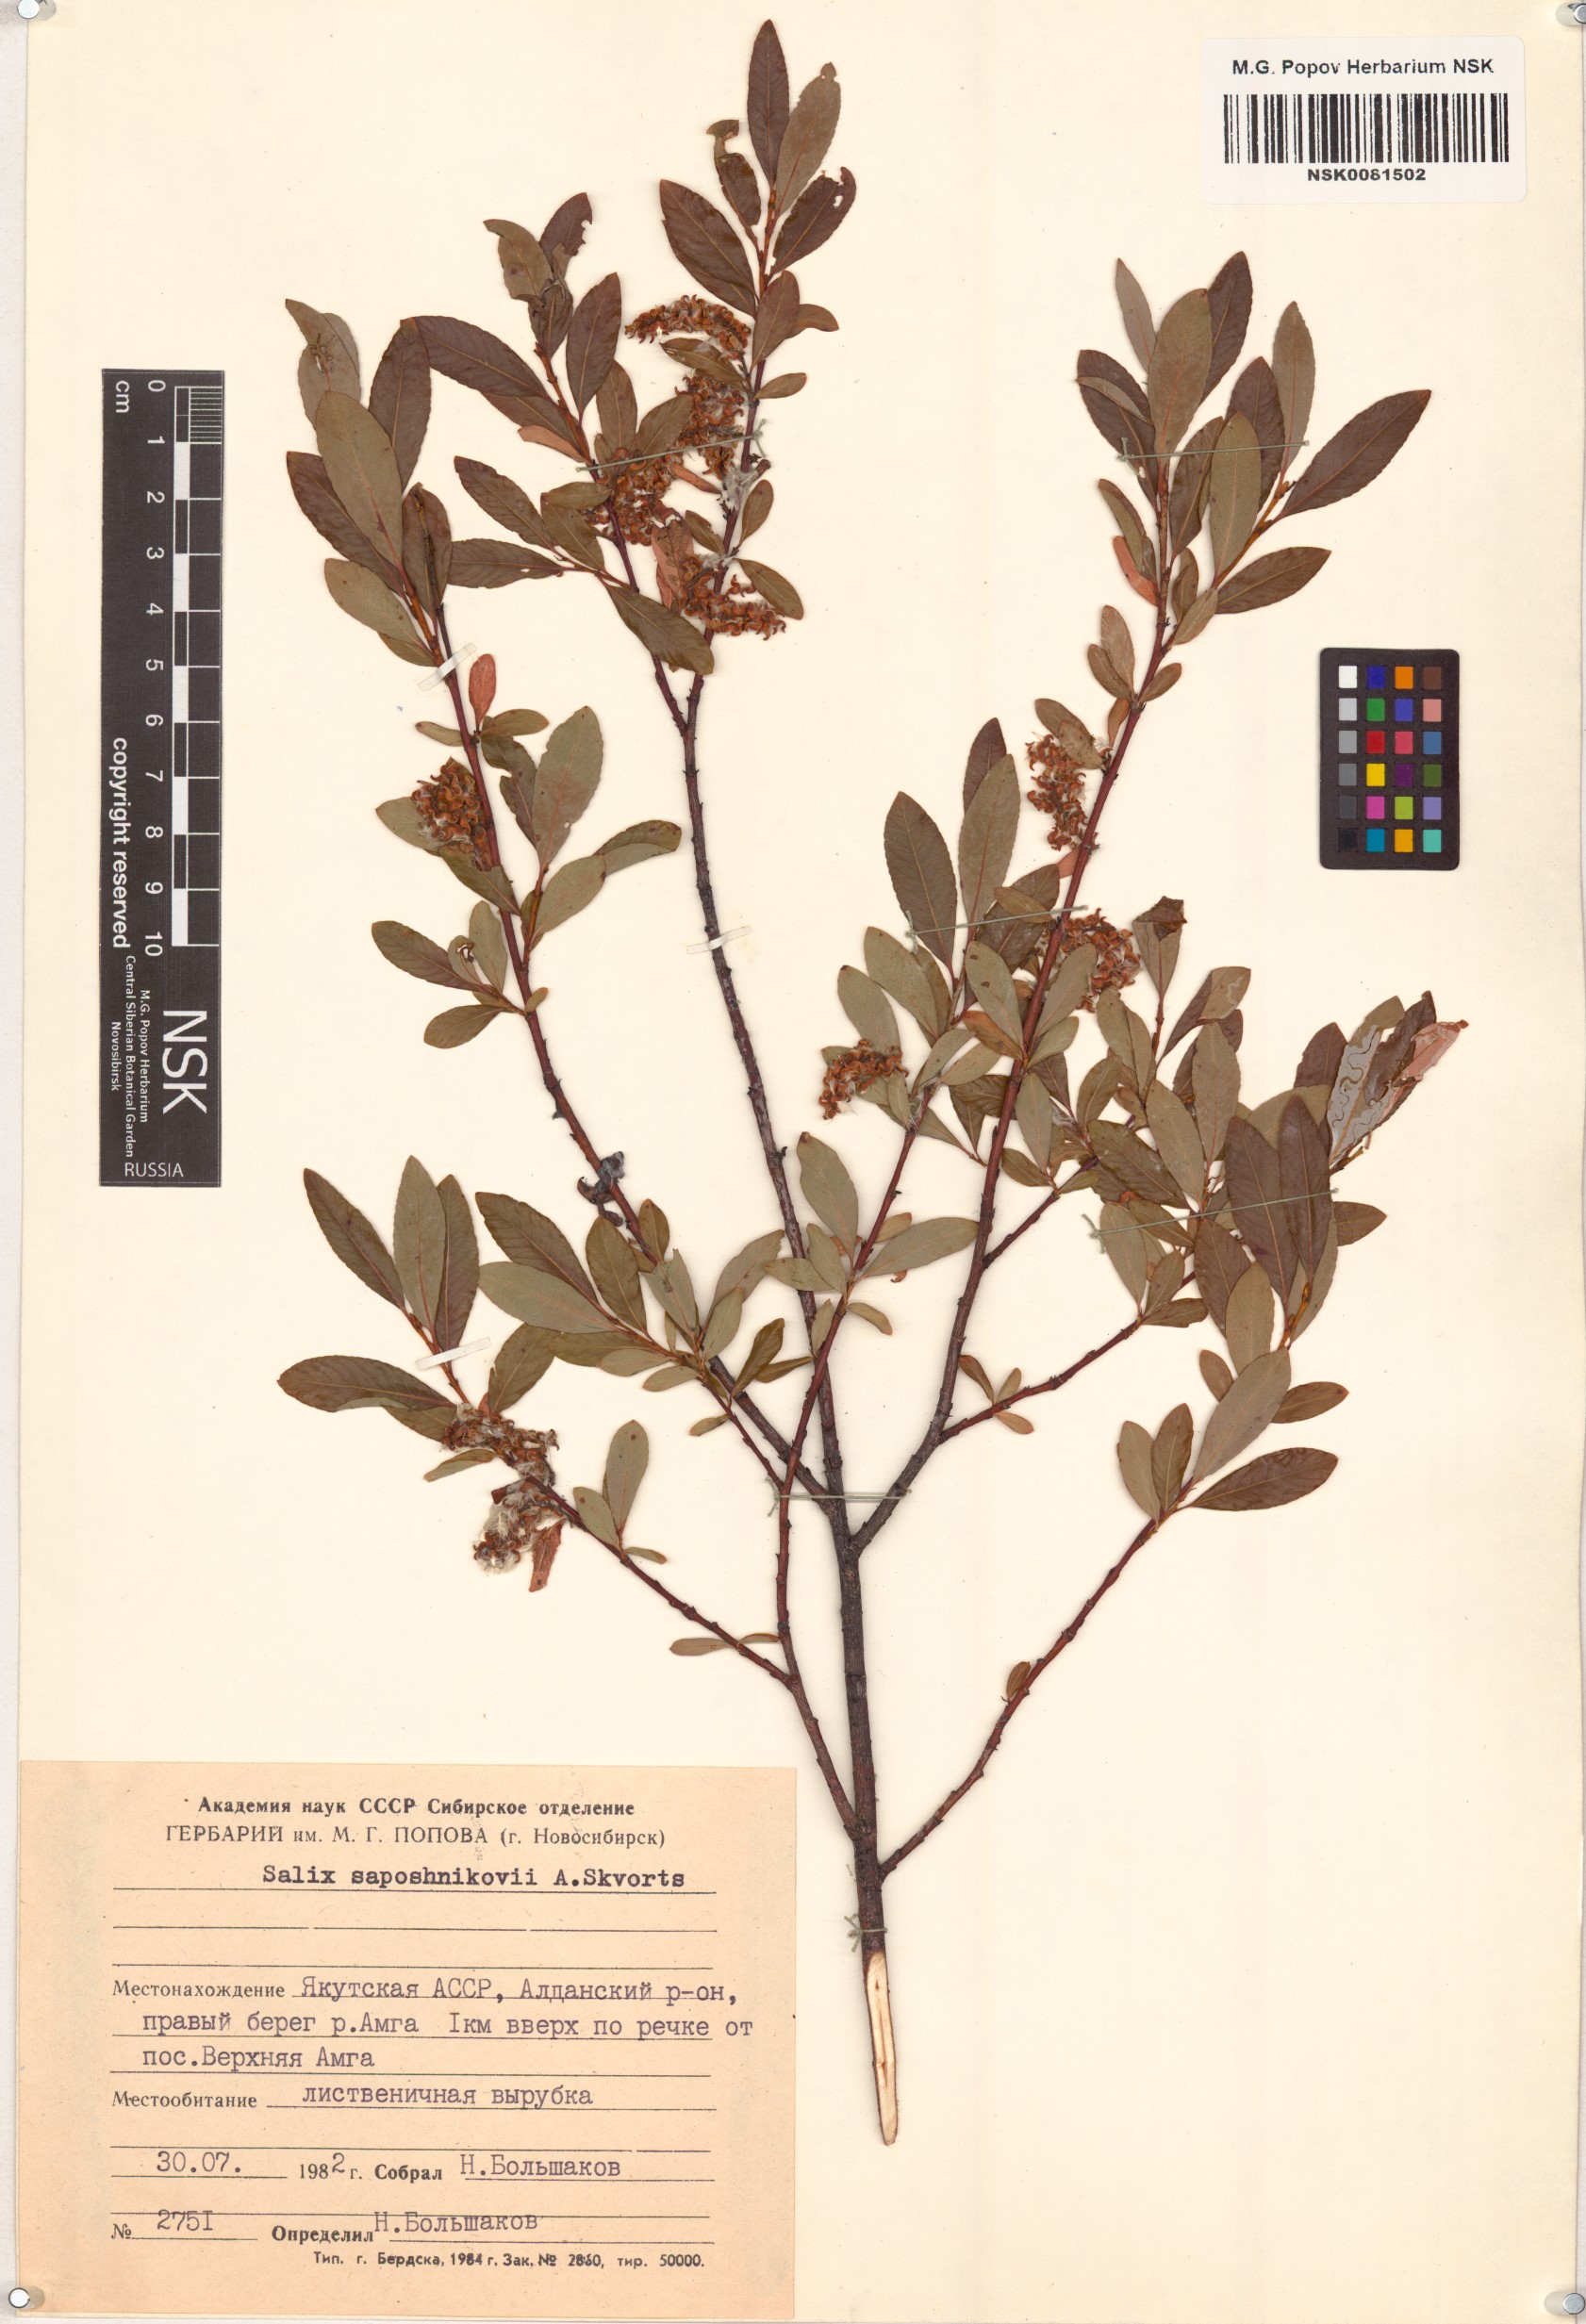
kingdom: Plantae
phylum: Tracheophyta
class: Magnoliopsida
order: Malpighiales
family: Salicaceae
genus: Salix
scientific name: Salix saposhnikovii
